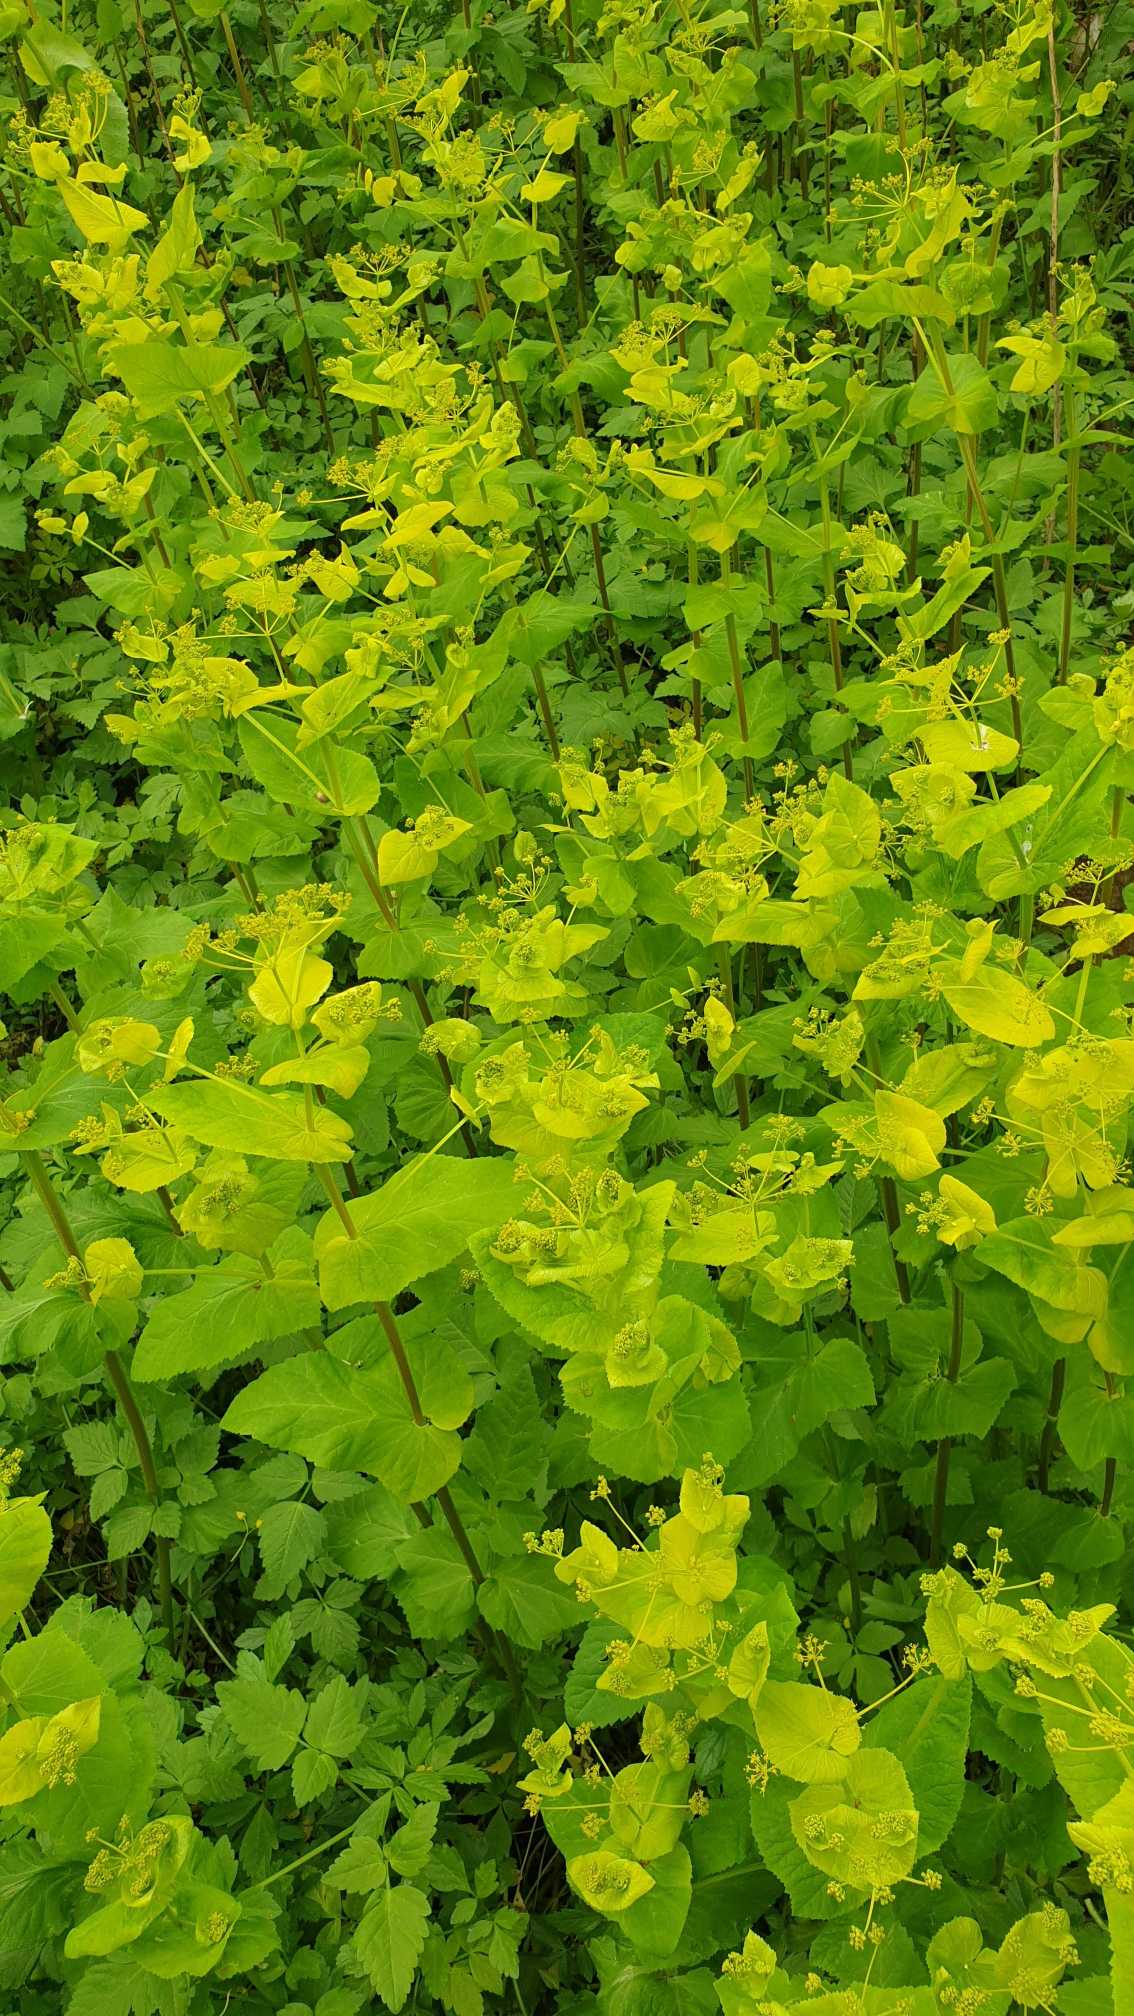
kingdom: Plantae
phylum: Tracheophyta
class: Magnoliopsida
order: Apiales
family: Apiaceae
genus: Smyrnium
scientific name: Smyrnium perfoliatum
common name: Lundgylden
